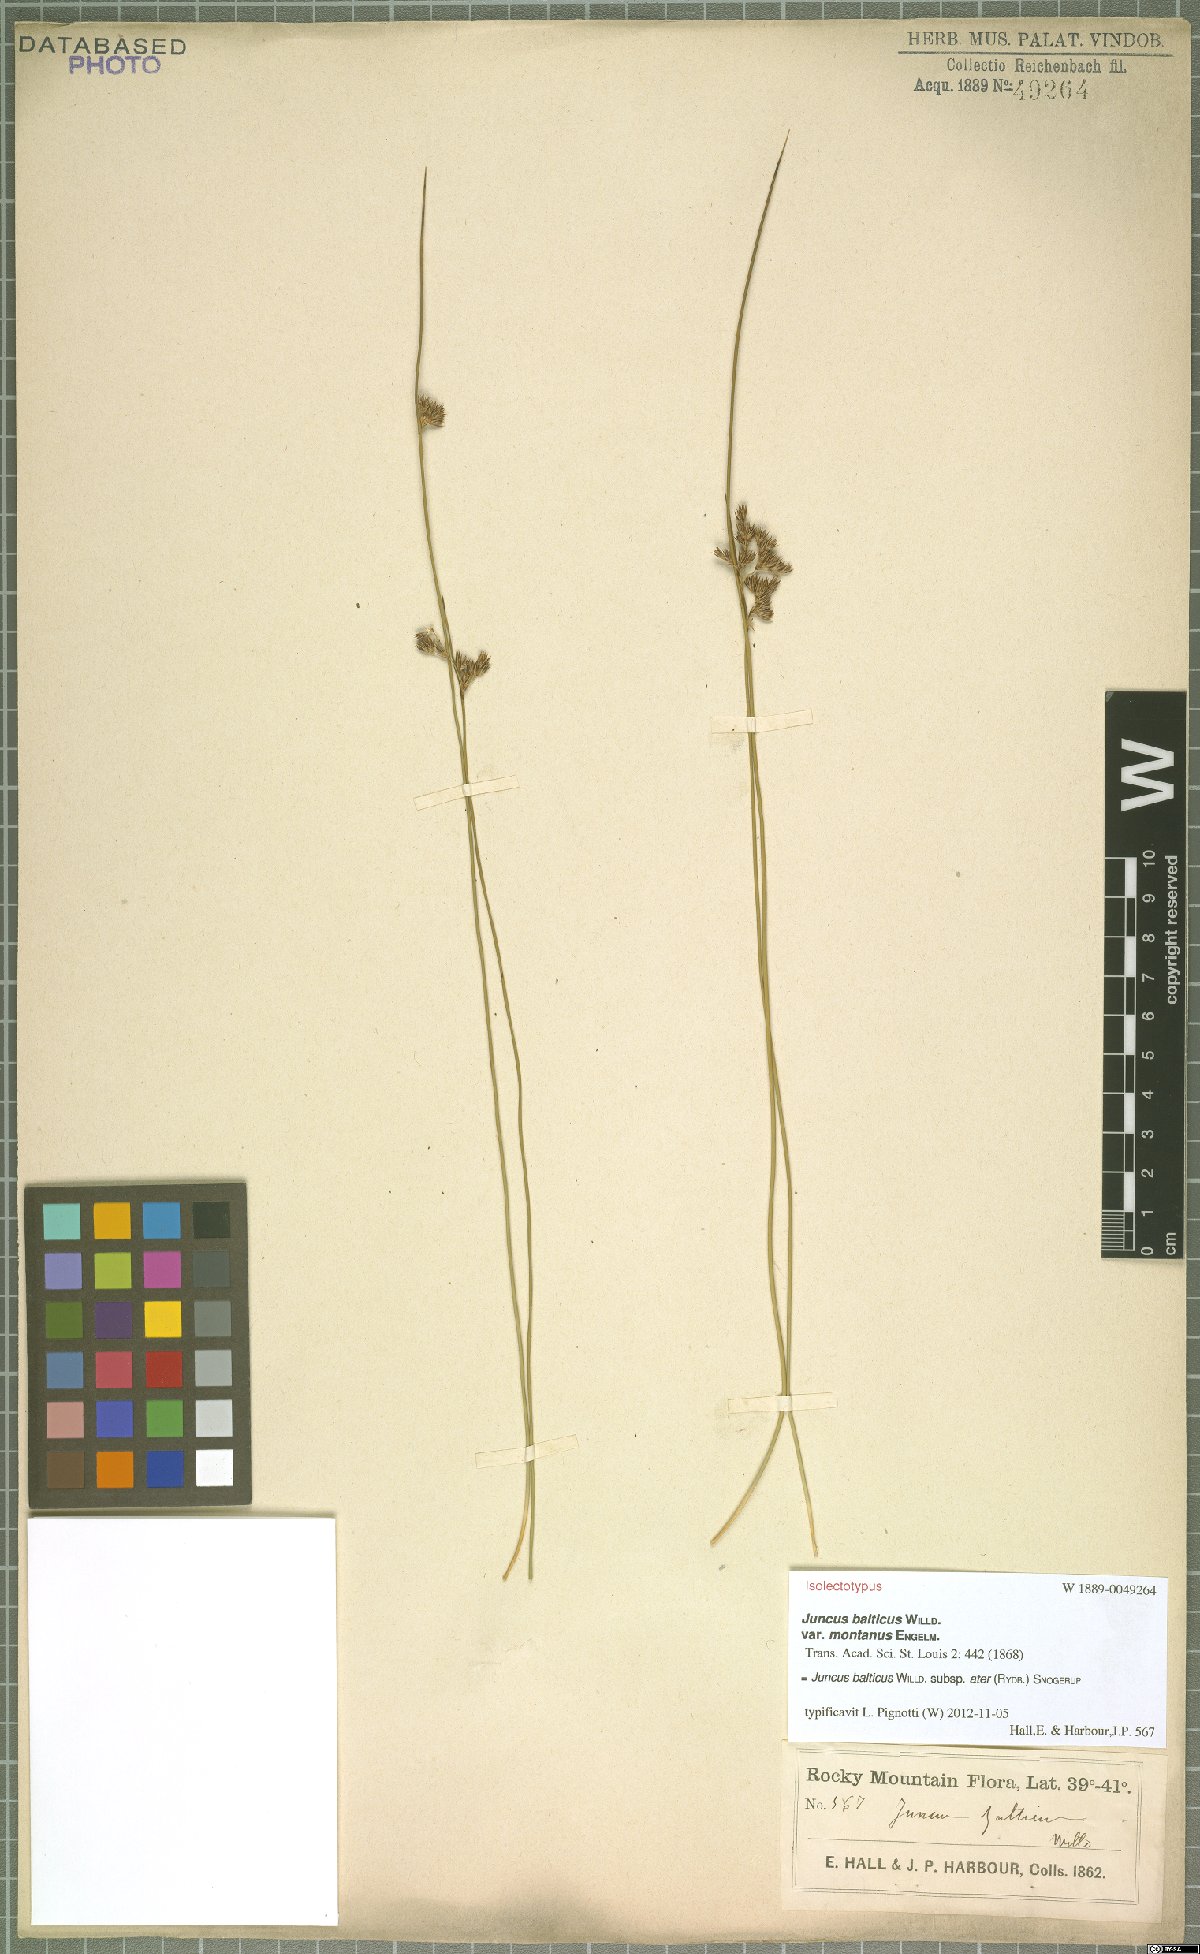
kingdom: Plantae
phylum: Tracheophyta
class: Liliopsida
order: Poales
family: Juncaceae
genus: Juncus
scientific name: Juncus balticus
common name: Baltic rush
